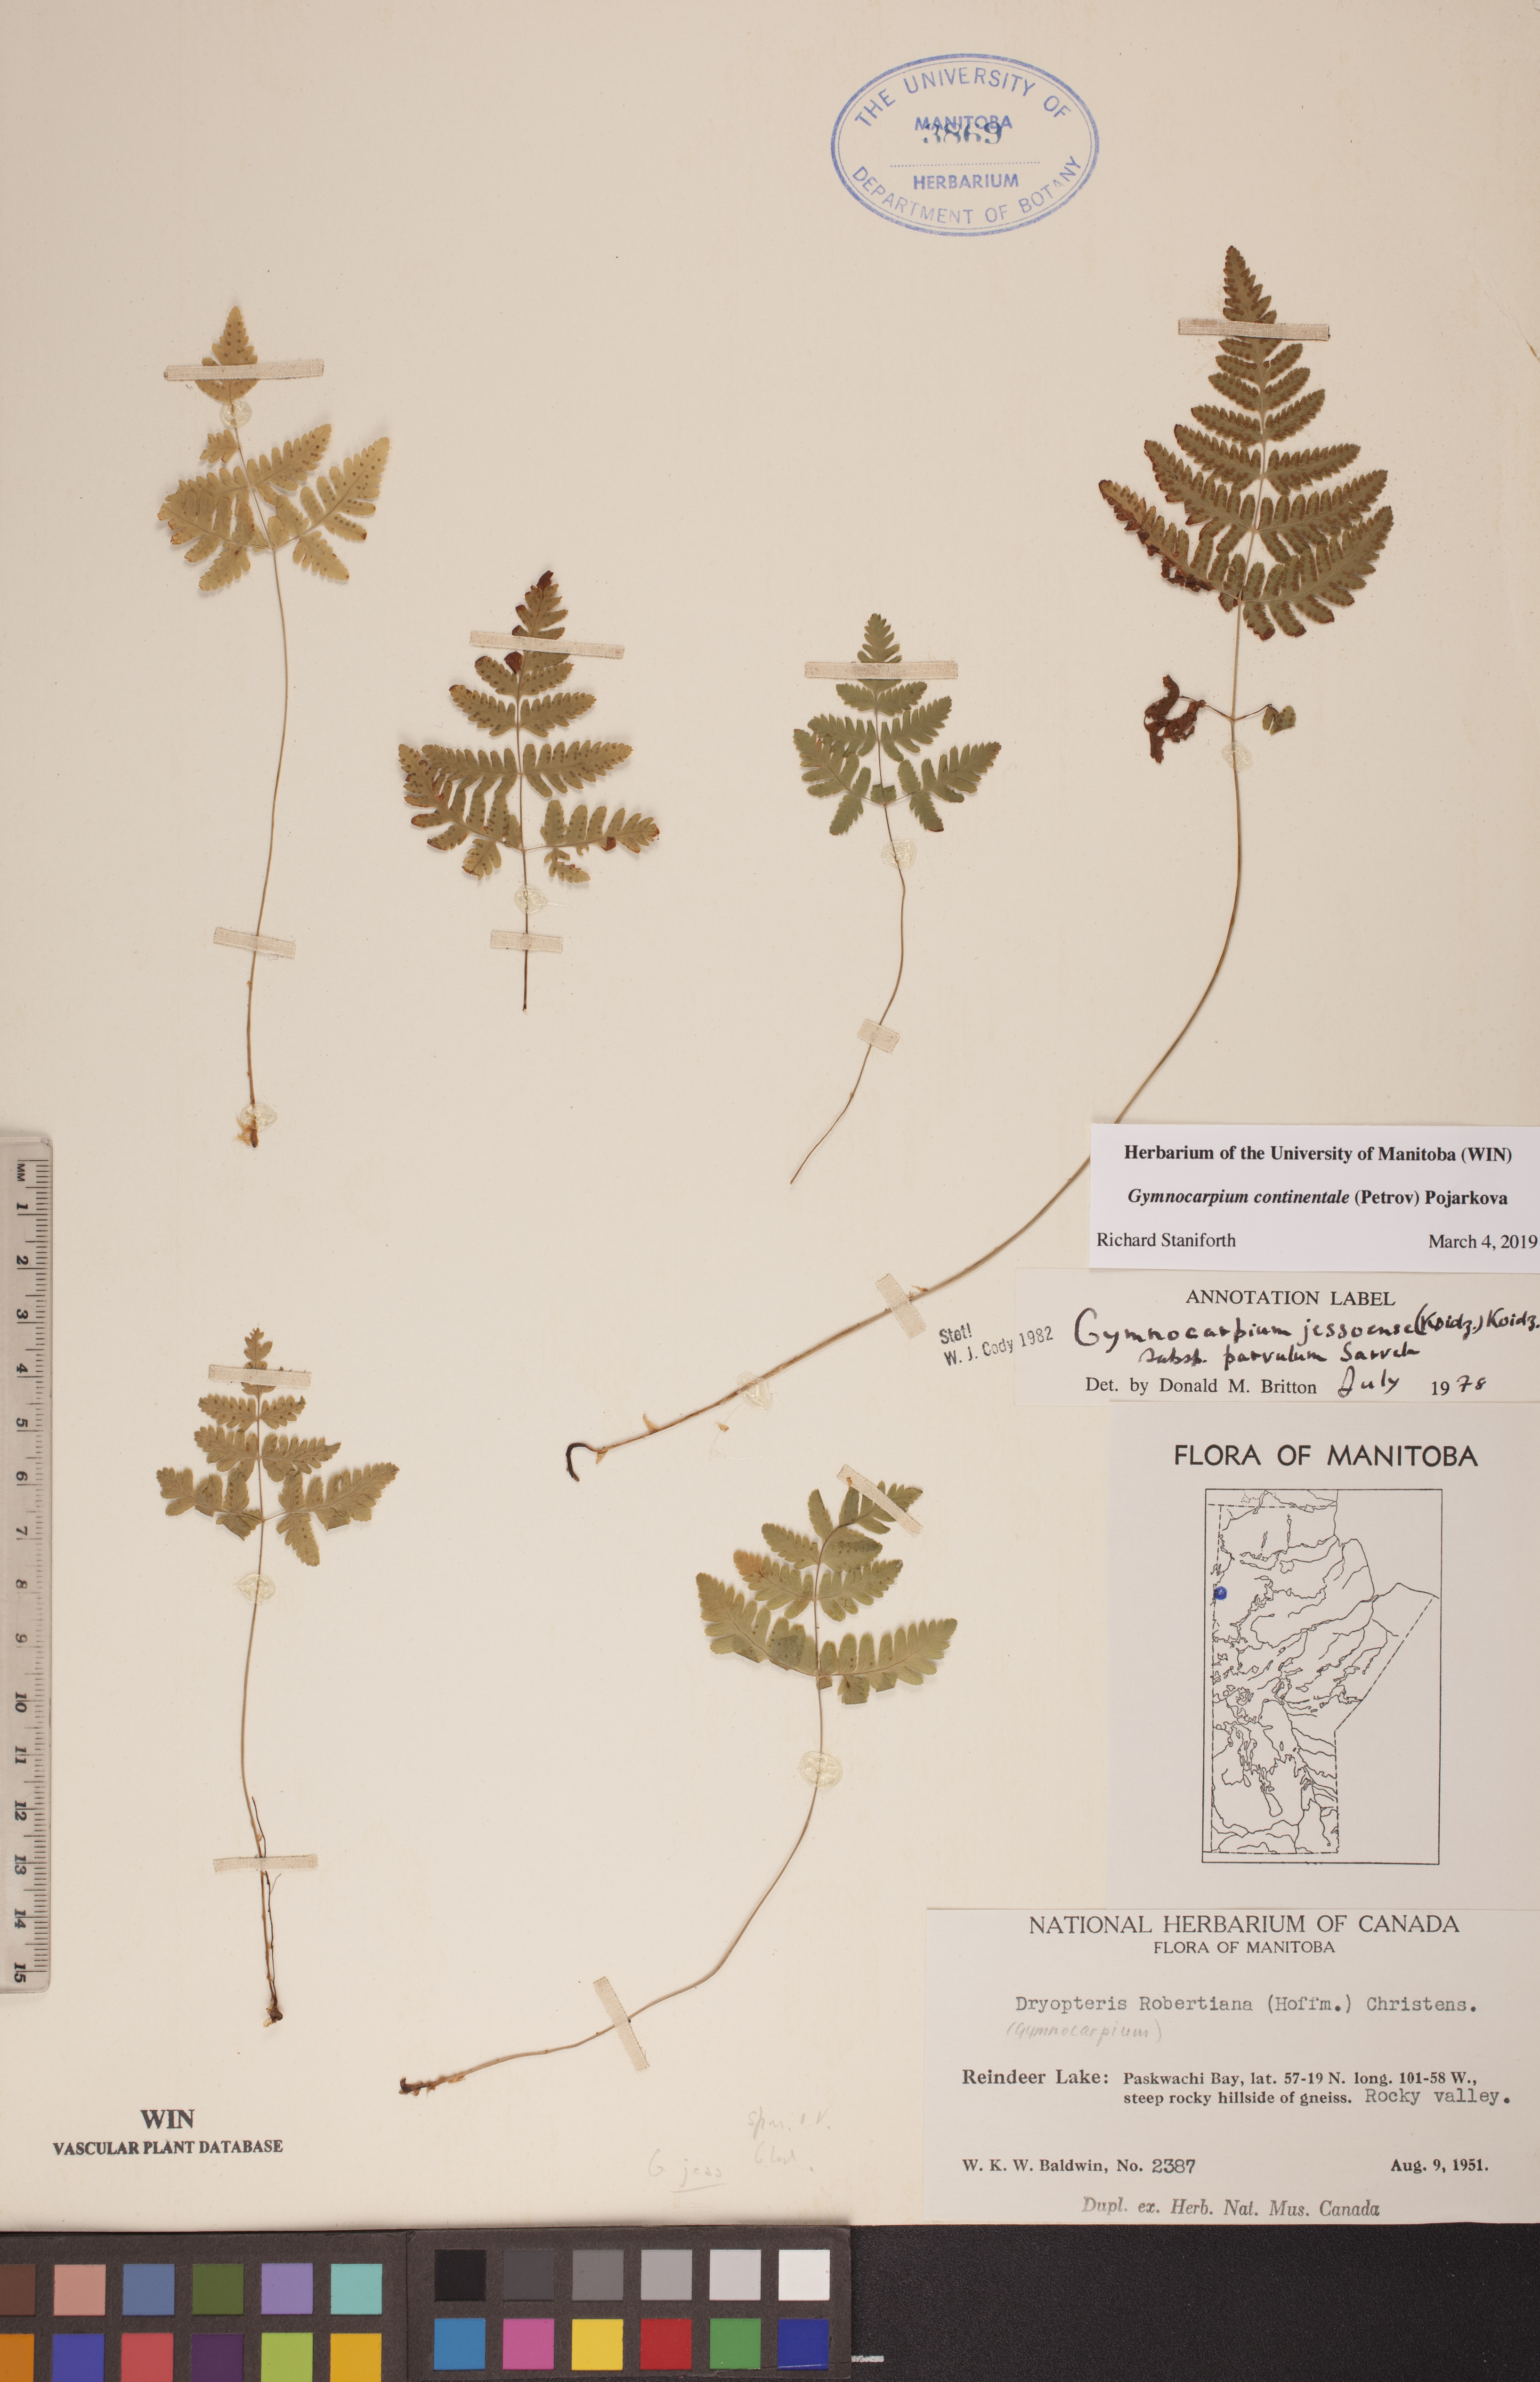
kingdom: Plantae
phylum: Tracheophyta
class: Polypodiopsida
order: Polypodiales
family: Cystopteridaceae
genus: Gymnocarpium
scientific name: Gymnocarpium continentale
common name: Asian oak fern
